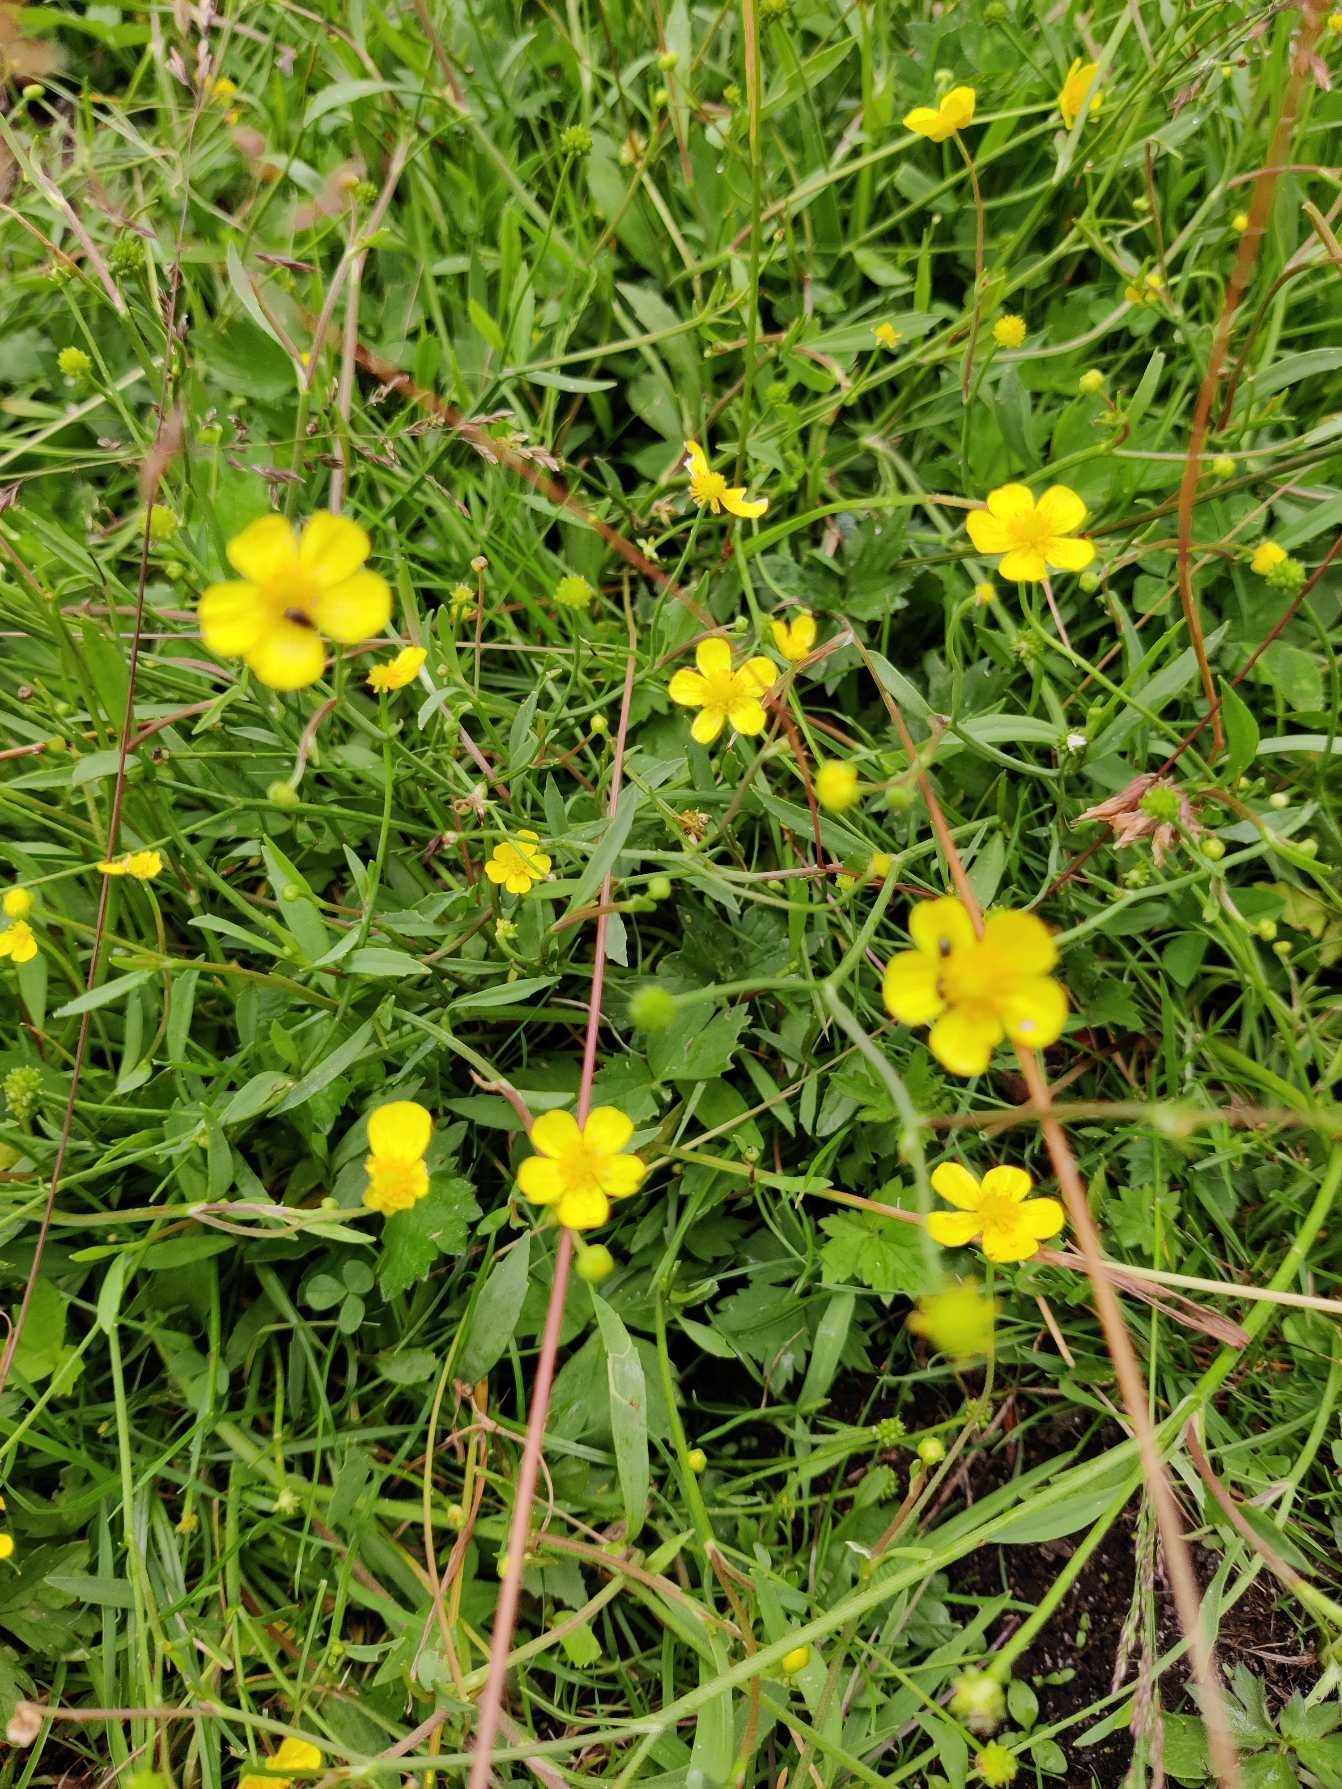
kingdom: Plantae
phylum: Tracheophyta
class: Magnoliopsida
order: Ranunculales
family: Ranunculaceae
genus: Ranunculus
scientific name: Ranunculus flammula
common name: Kær-ranunkel
